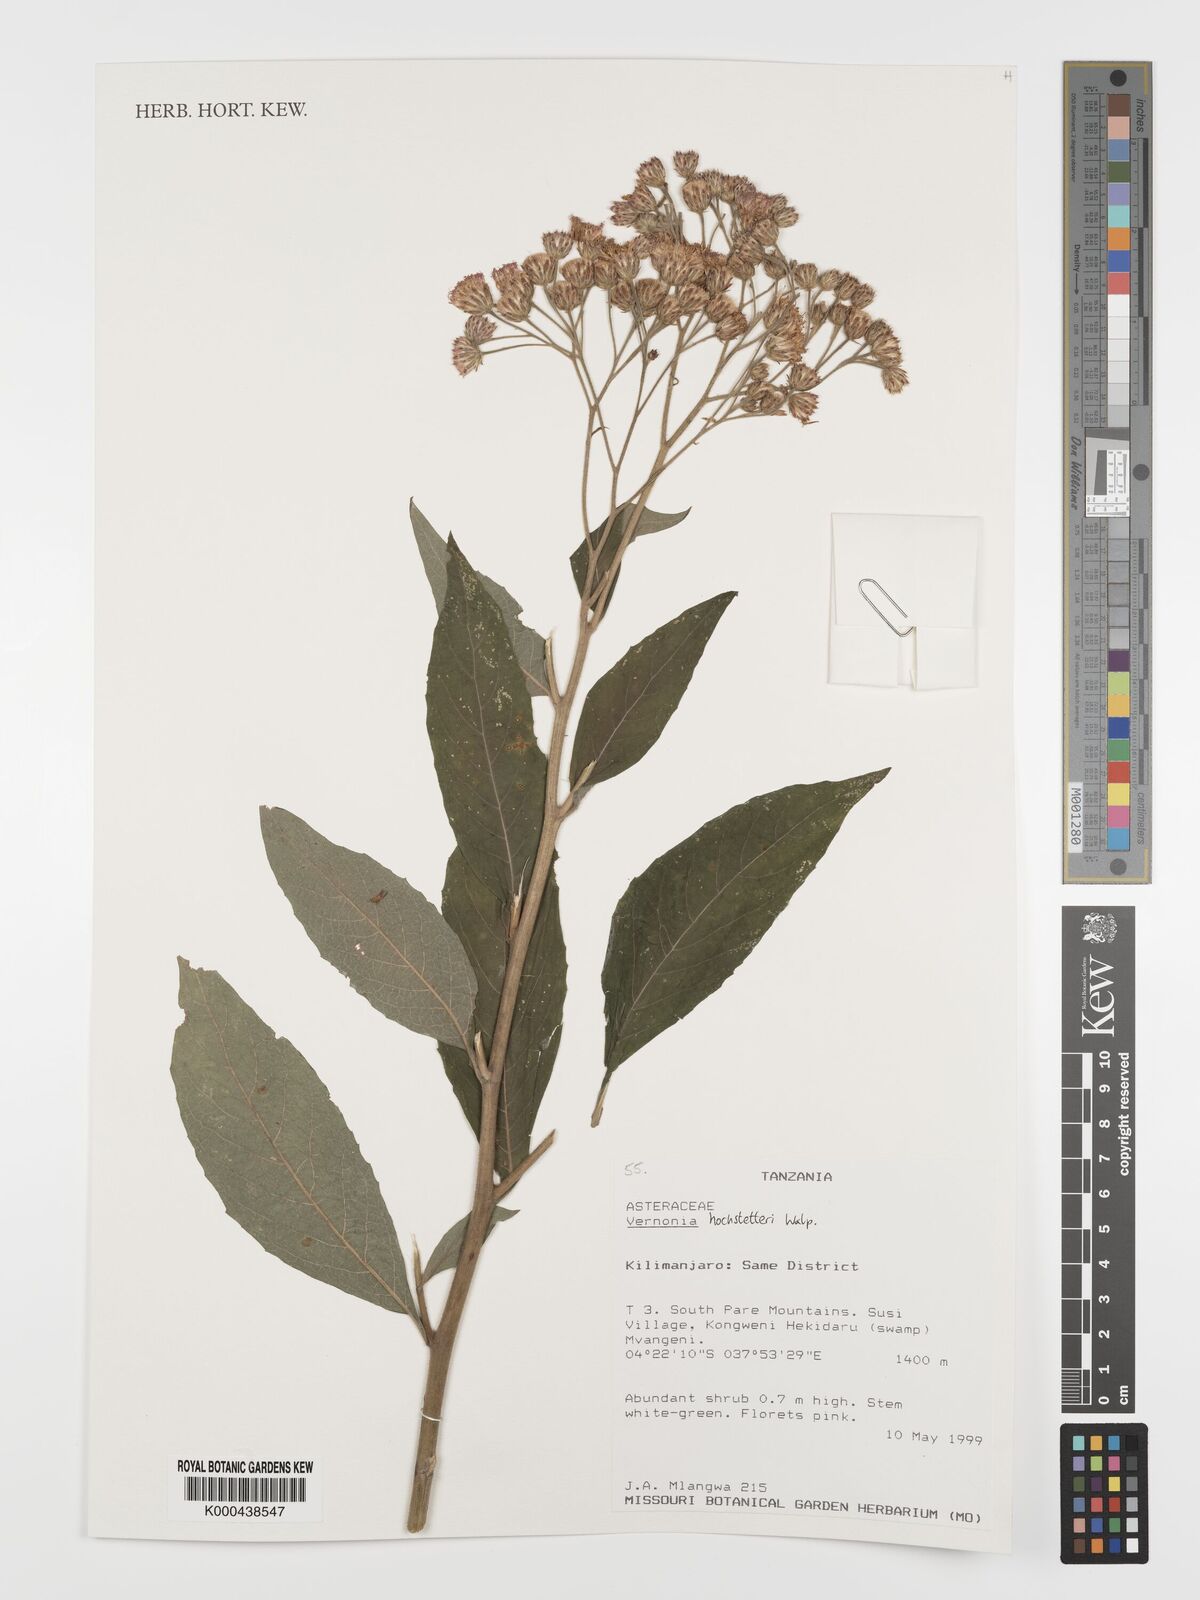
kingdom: Plantae
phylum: Tracheophyta
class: Magnoliopsida
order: Asterales
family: Asteraceae
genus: Vernonia
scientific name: Vernonia
